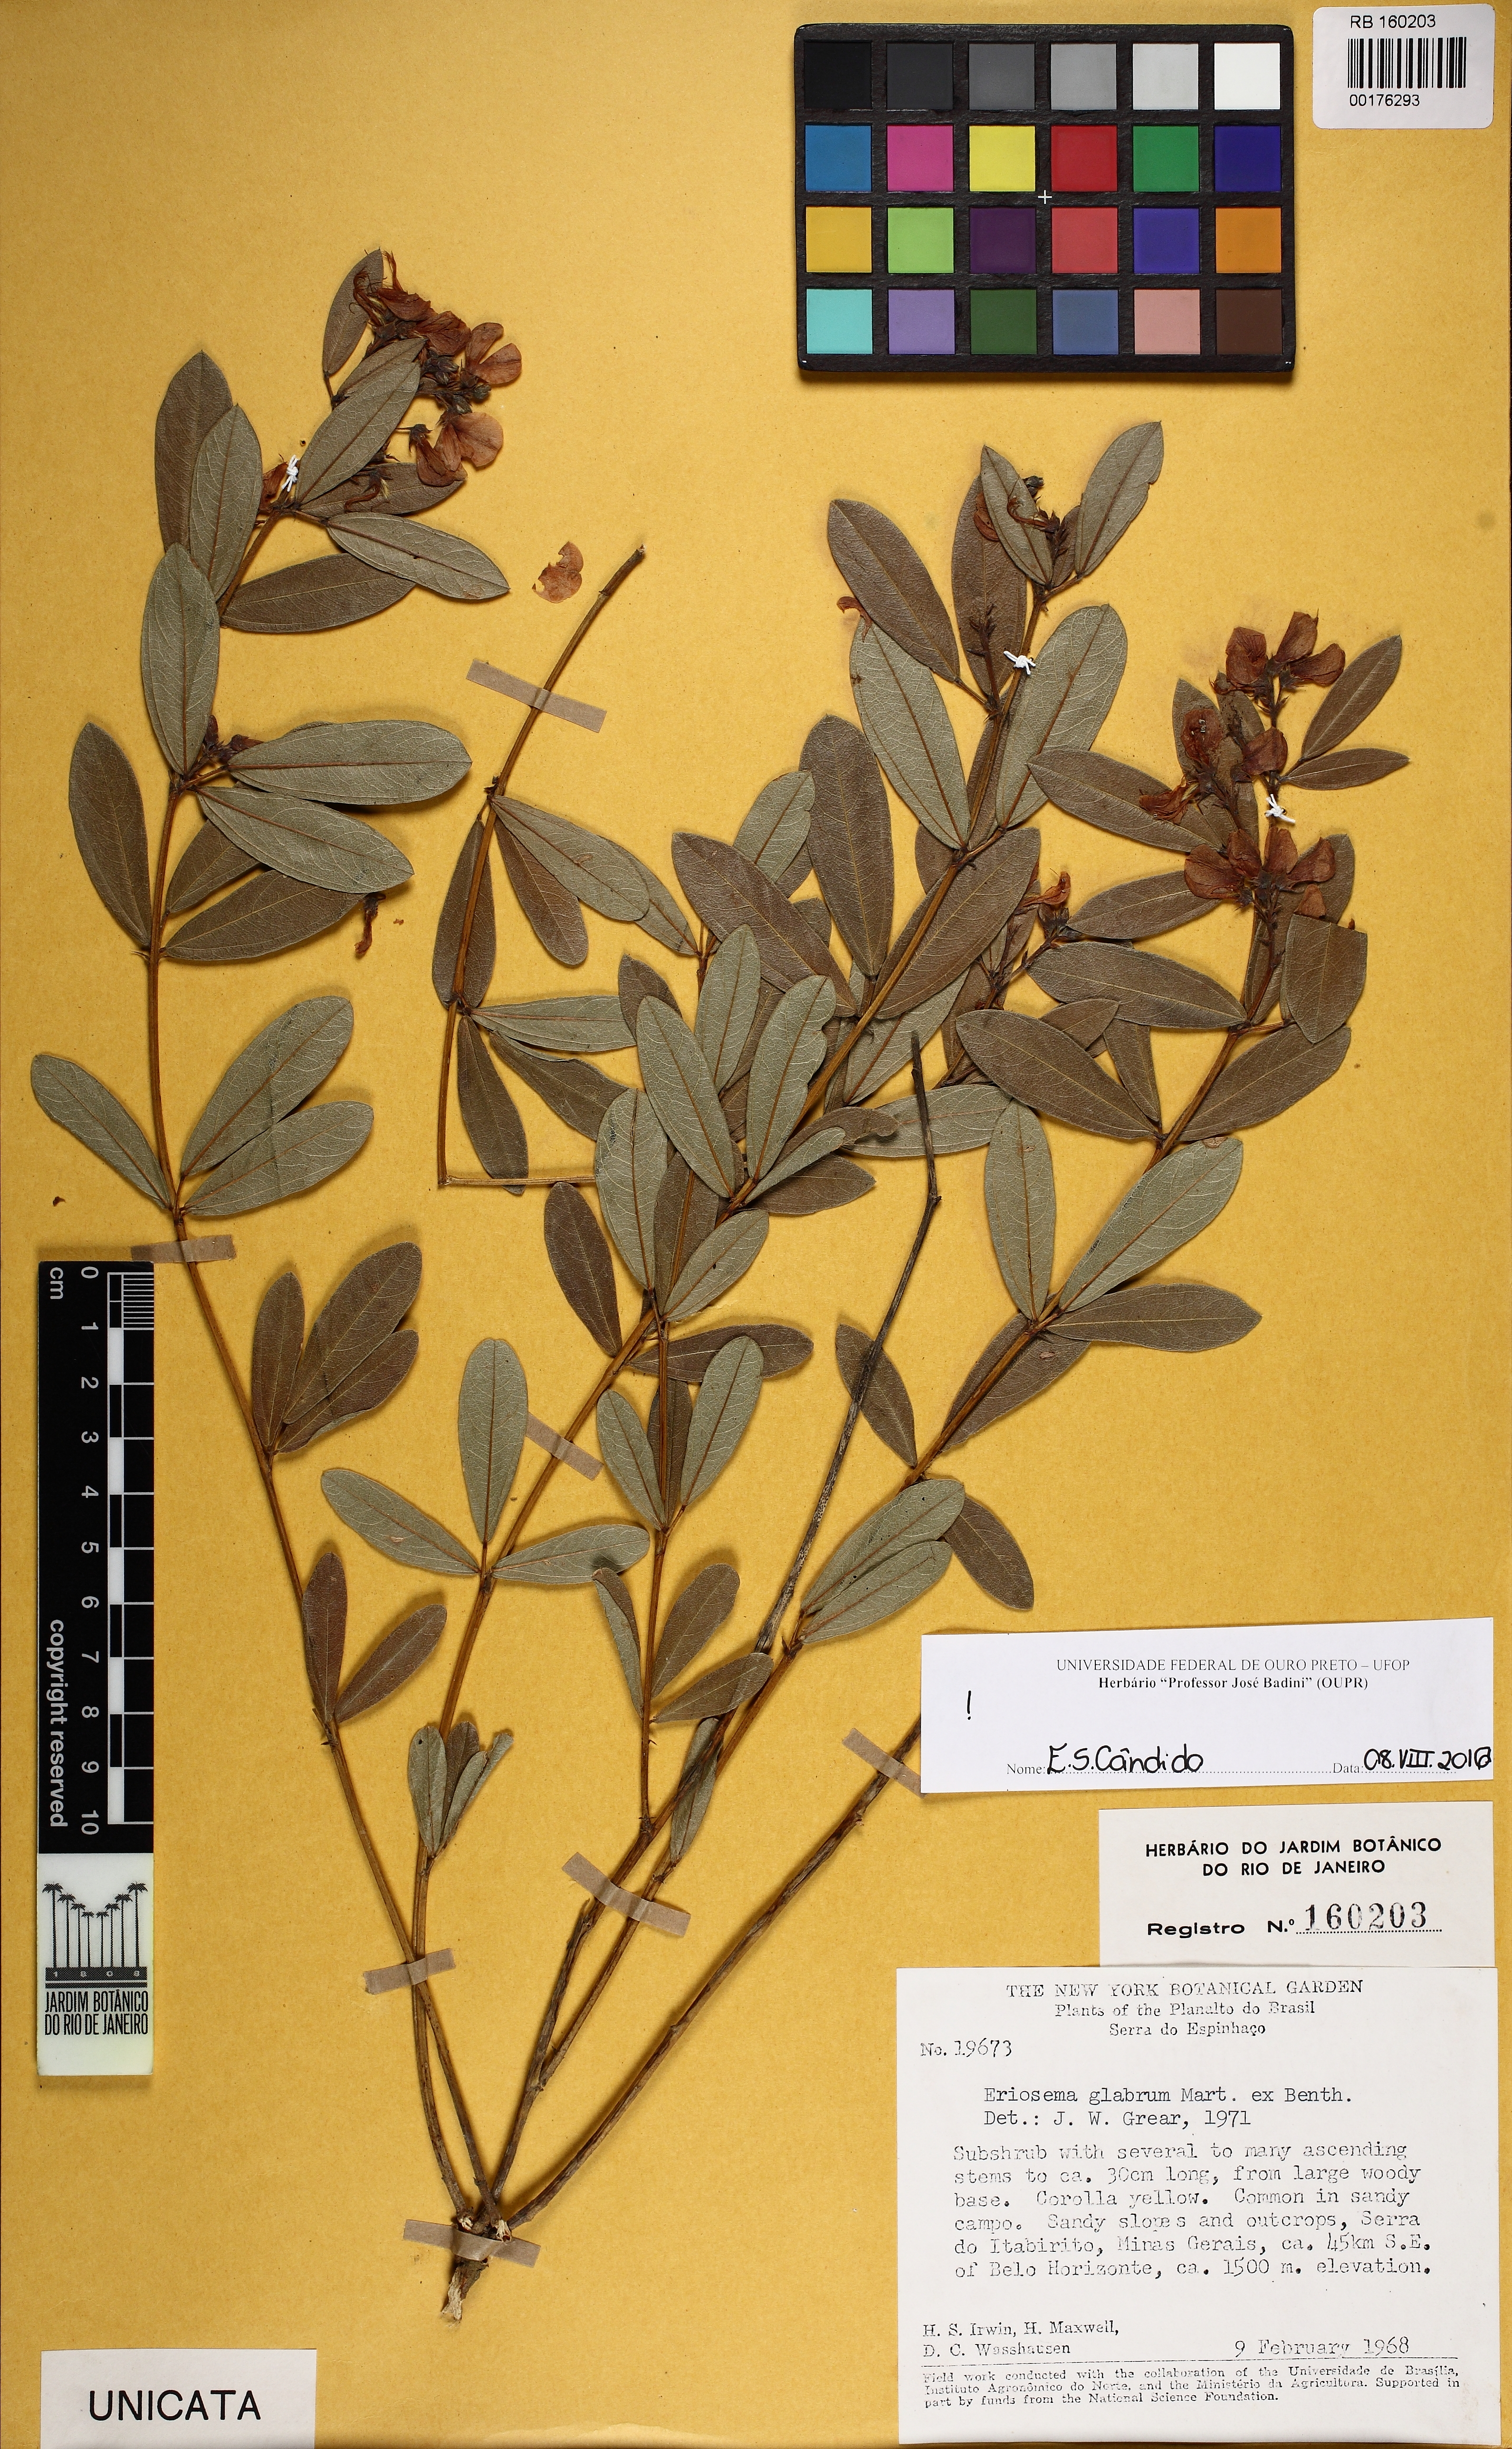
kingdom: Plantae
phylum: Tracheophyta
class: Magnoliopsida
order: Fabales
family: Fabaceae
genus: Eriosema
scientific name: Eriosema glabrum
